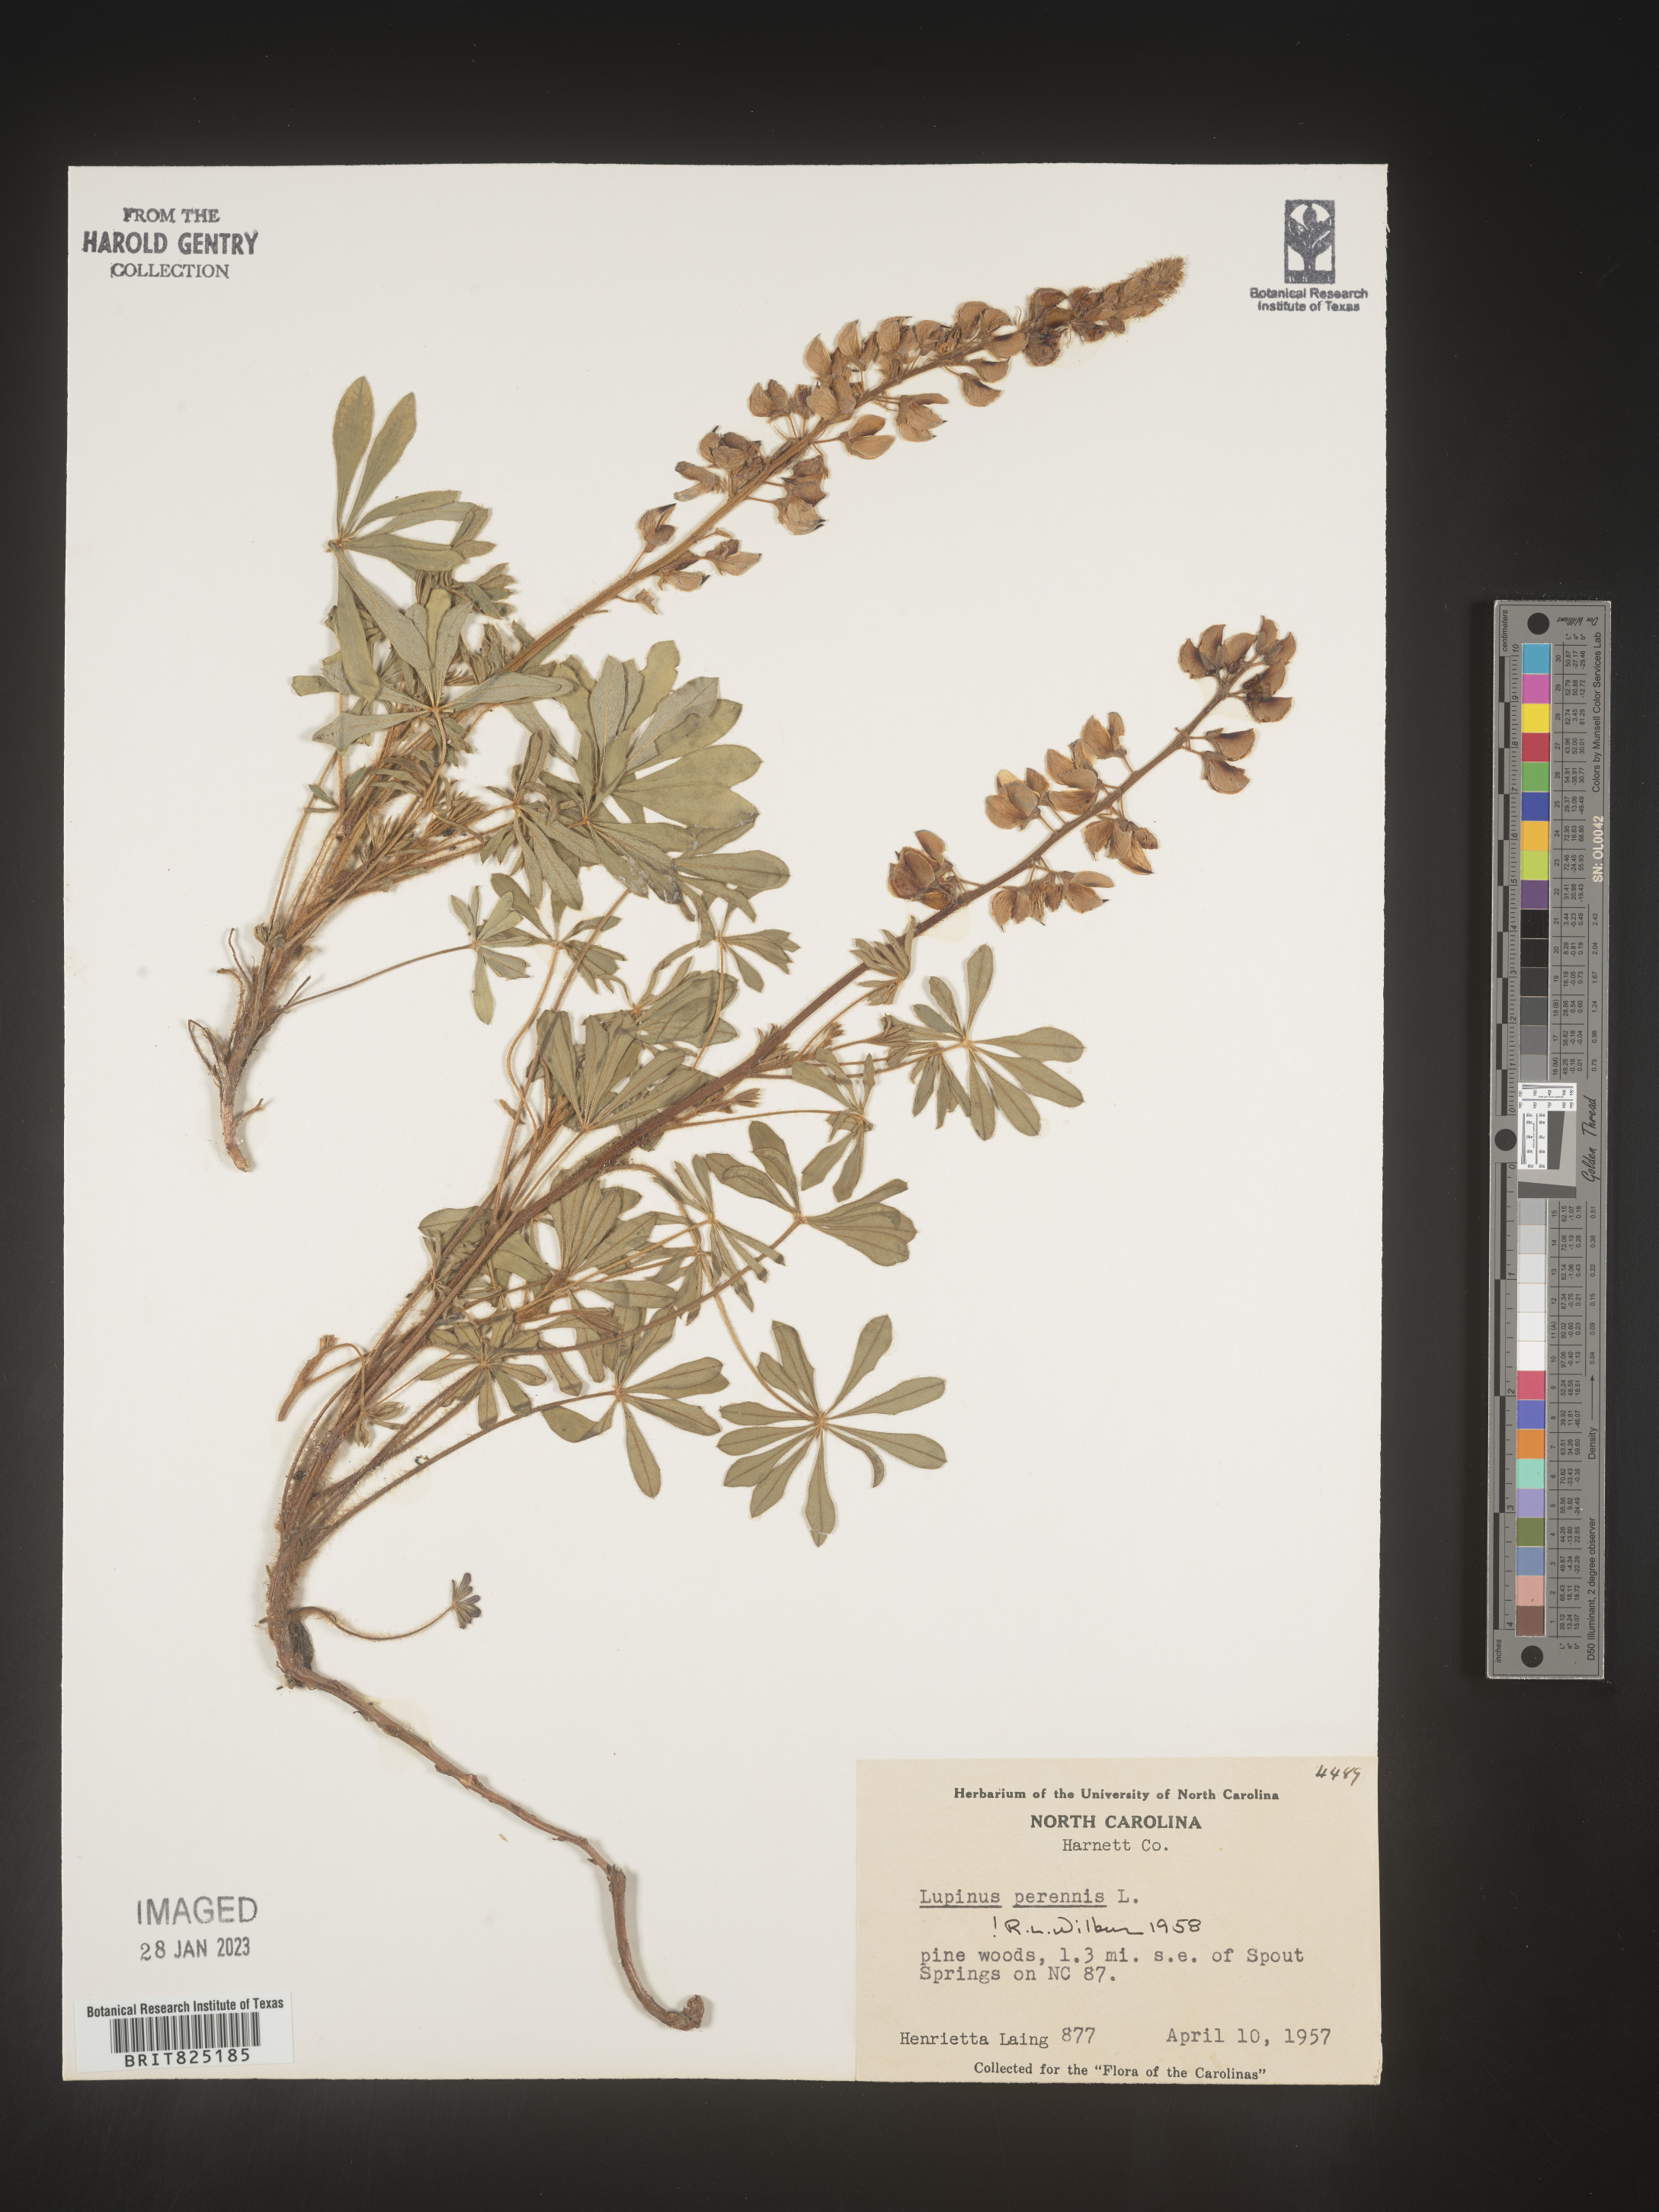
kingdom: Plantae
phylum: Tracheophyta
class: Magnoliopsida
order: Fabales
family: Fabaceae
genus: Lupinus
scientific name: Lupinus perennis
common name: Sundial lupine
